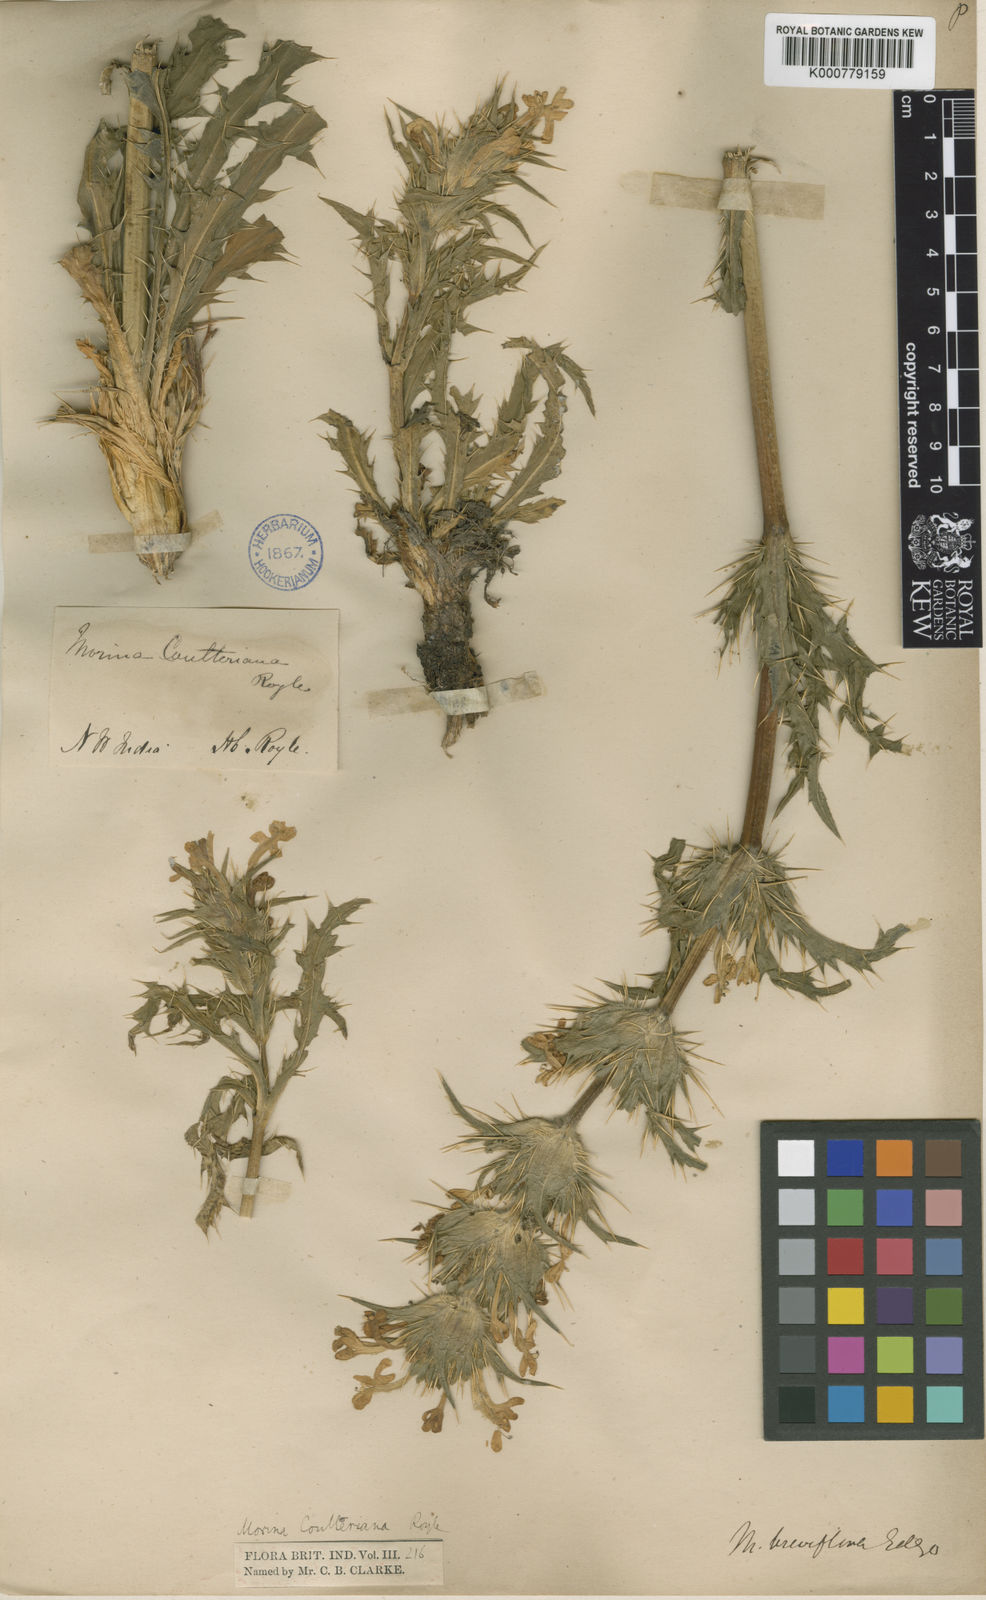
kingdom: Plantae
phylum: Tracheophyta
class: Magnoliopsida
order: Dipsacales
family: Caprifoliaceae
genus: Morina
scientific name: Morina coulteriana
